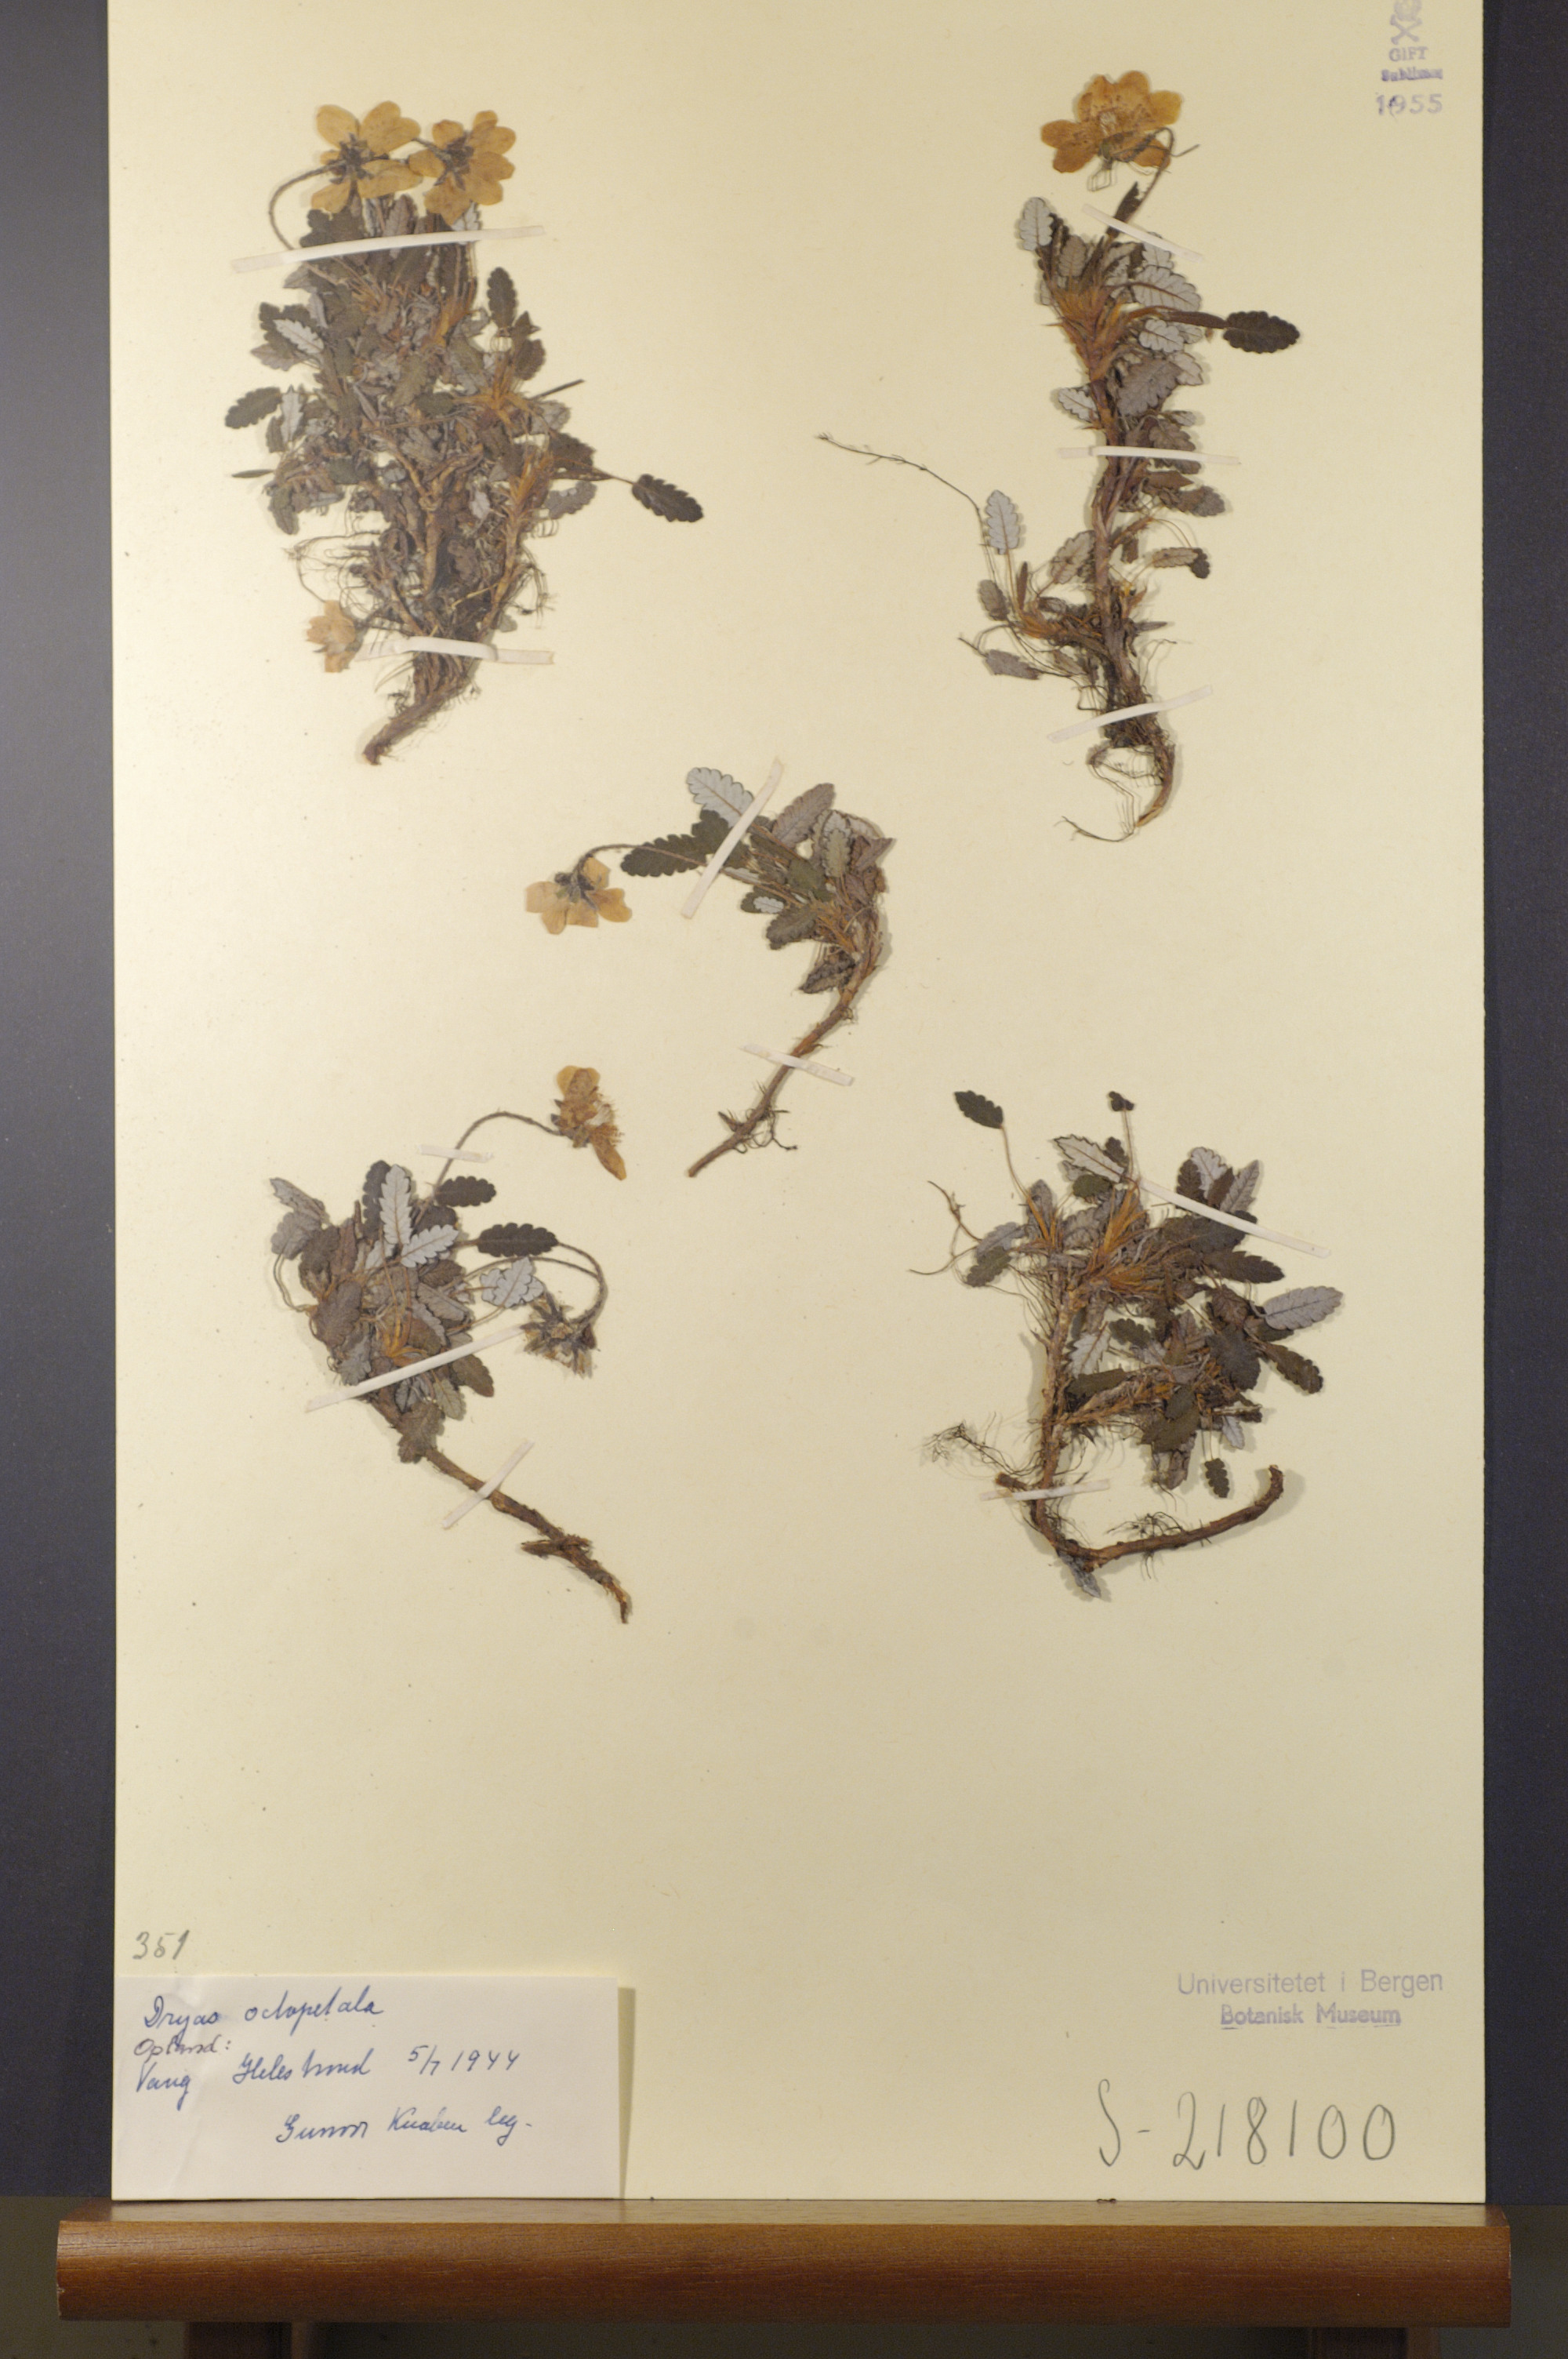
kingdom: Plantae
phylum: Tracheophyta
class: Magnoliopsida
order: Rosales
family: Rosaceae
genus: Dryas
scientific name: Dryas octopetala
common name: Eight-petal mountain-avens
